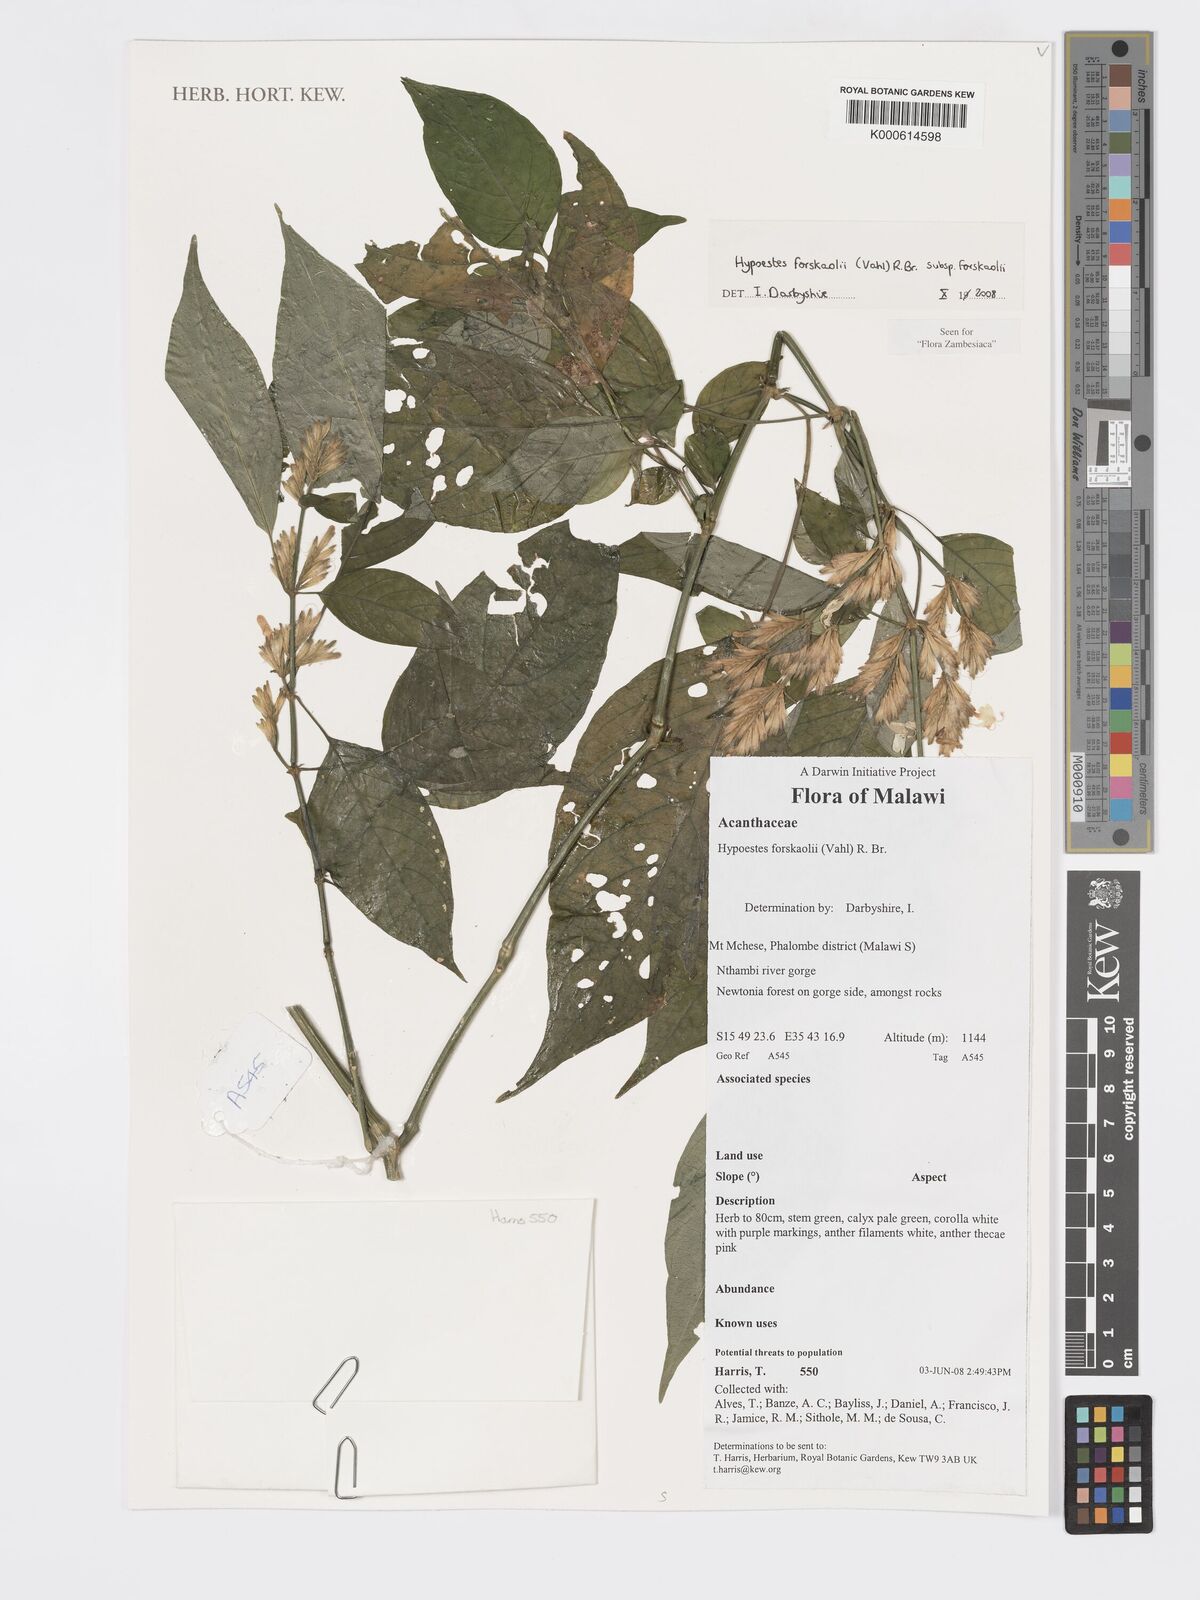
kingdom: Plantae
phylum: Tracheophyta
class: Magnoliopsida
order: Lamiales
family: Acanthaceae
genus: Hypoestes
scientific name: Hypoestes forskaolii
